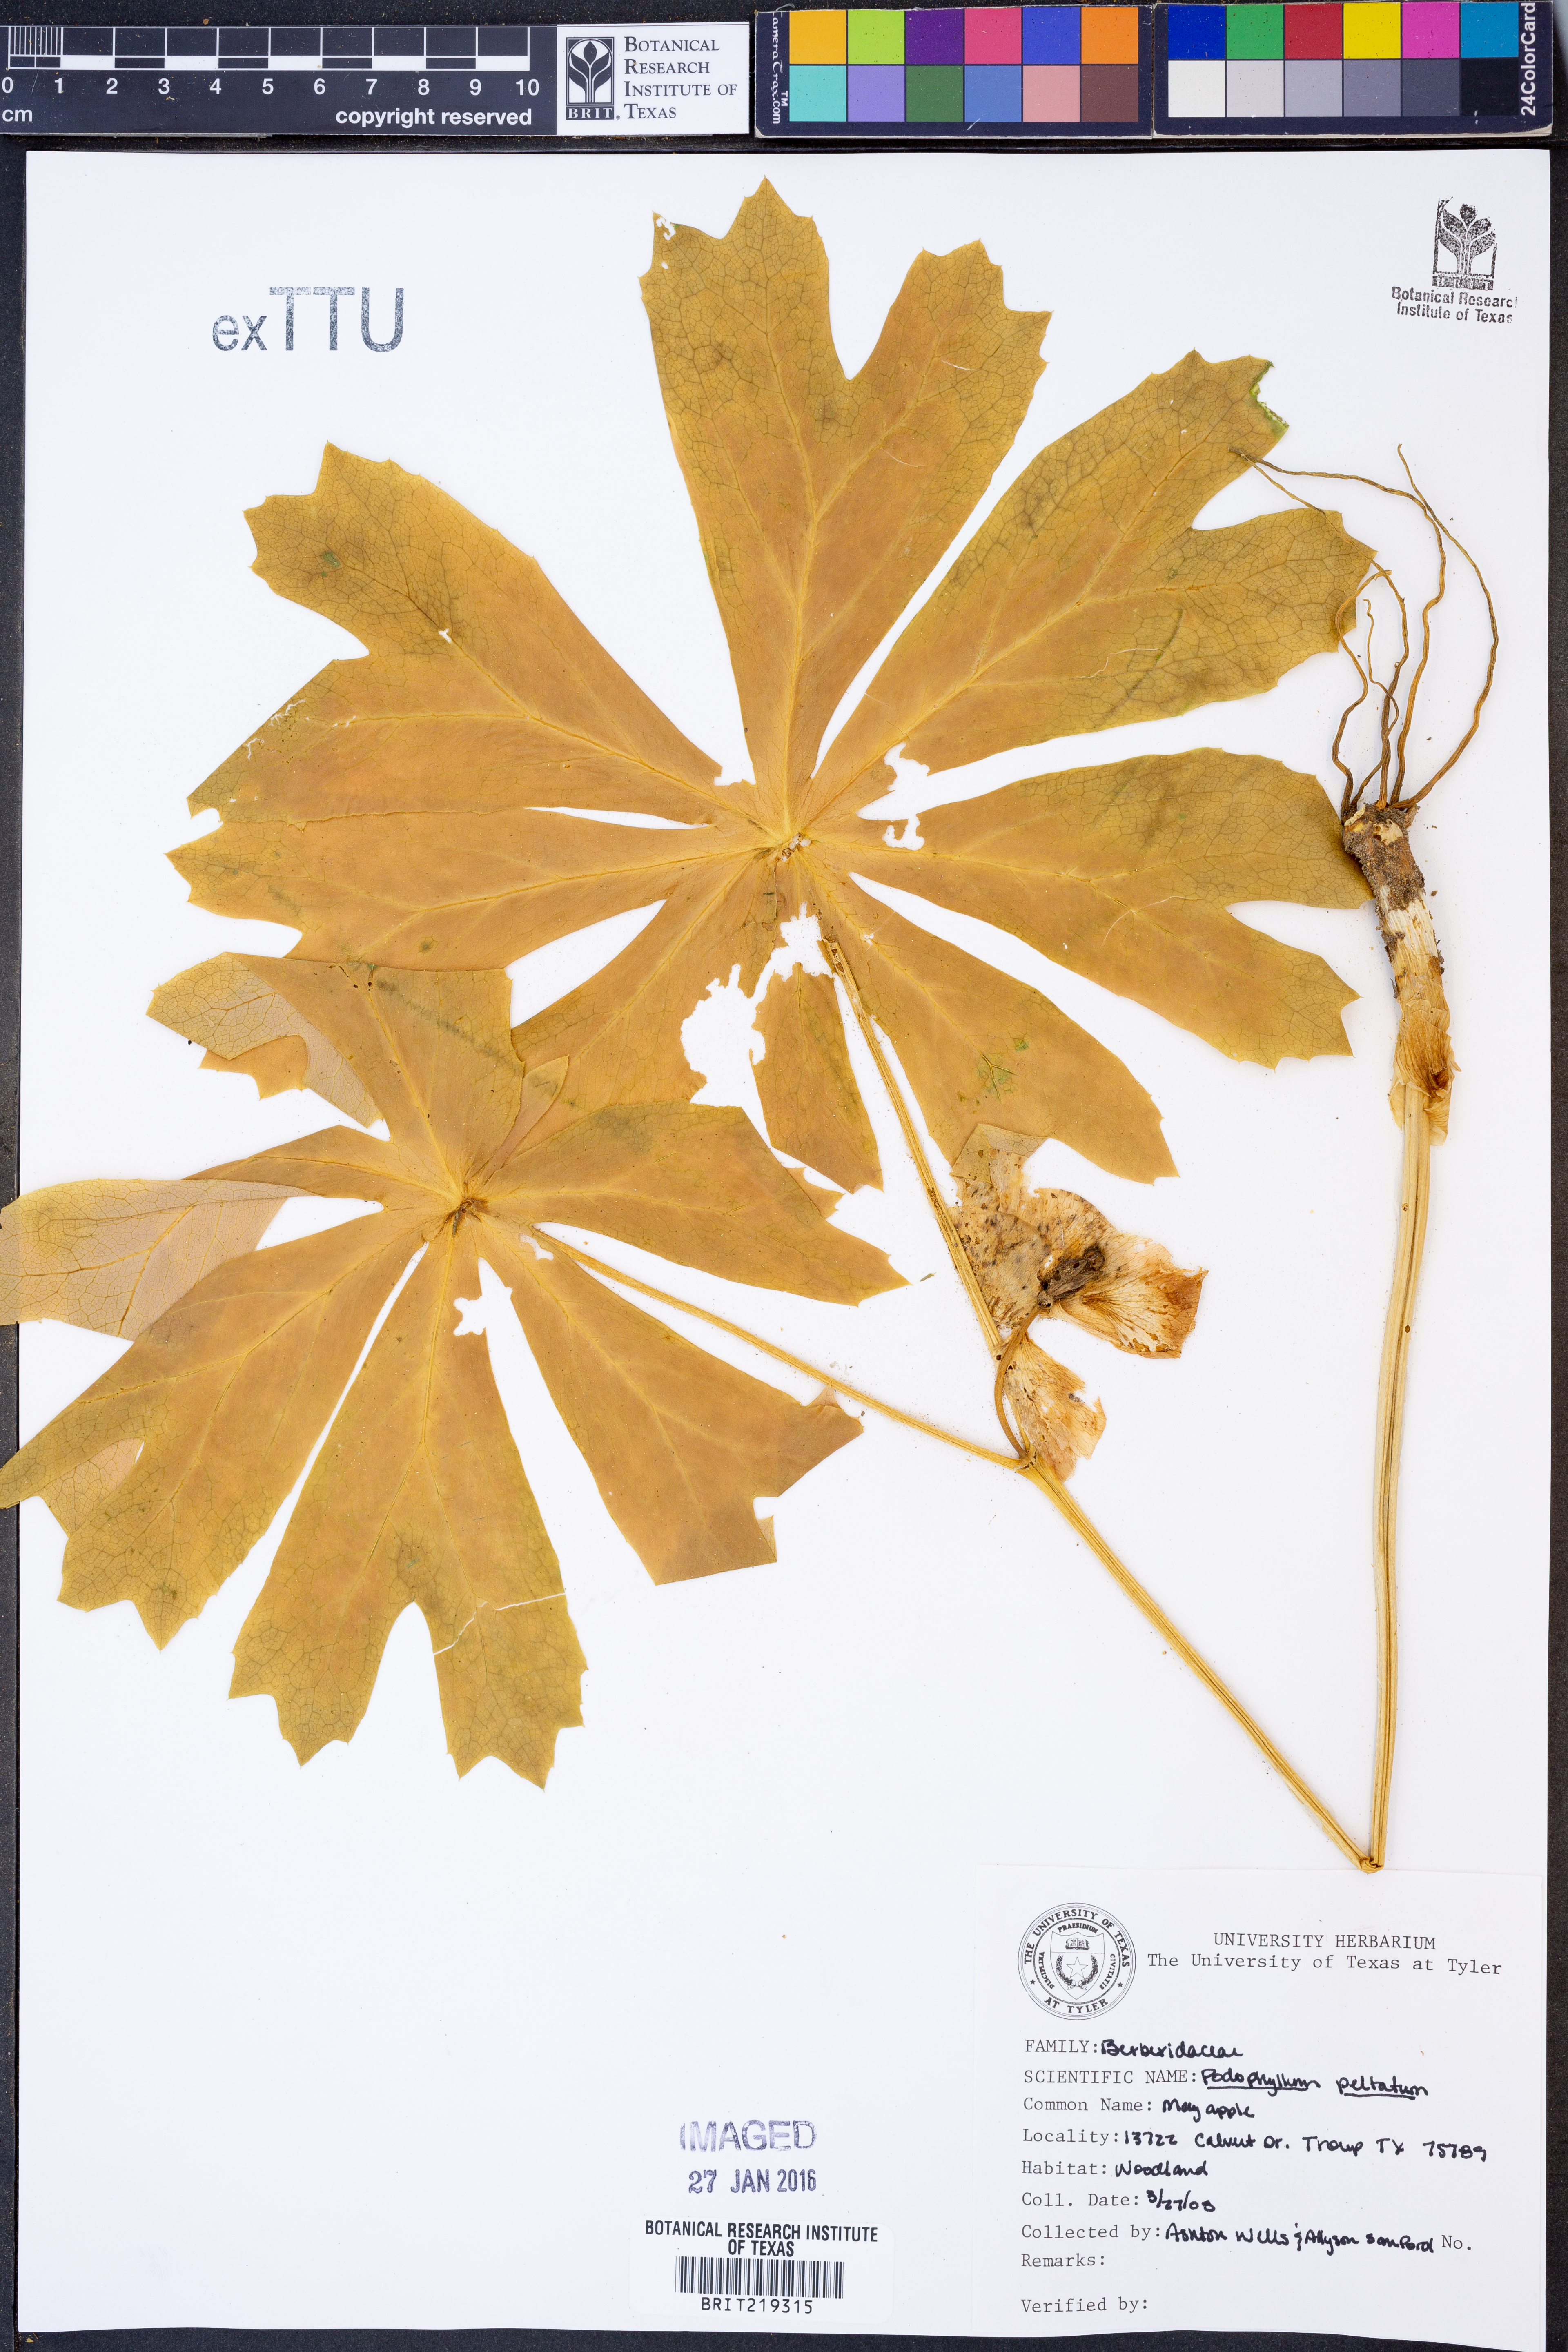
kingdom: Plantae
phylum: Tracheophyta
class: Magnoliopsida
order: Ranunculales
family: Berberidaceae
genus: Podophyllum
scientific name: Podophyllum peltatum
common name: Wild mandrake
